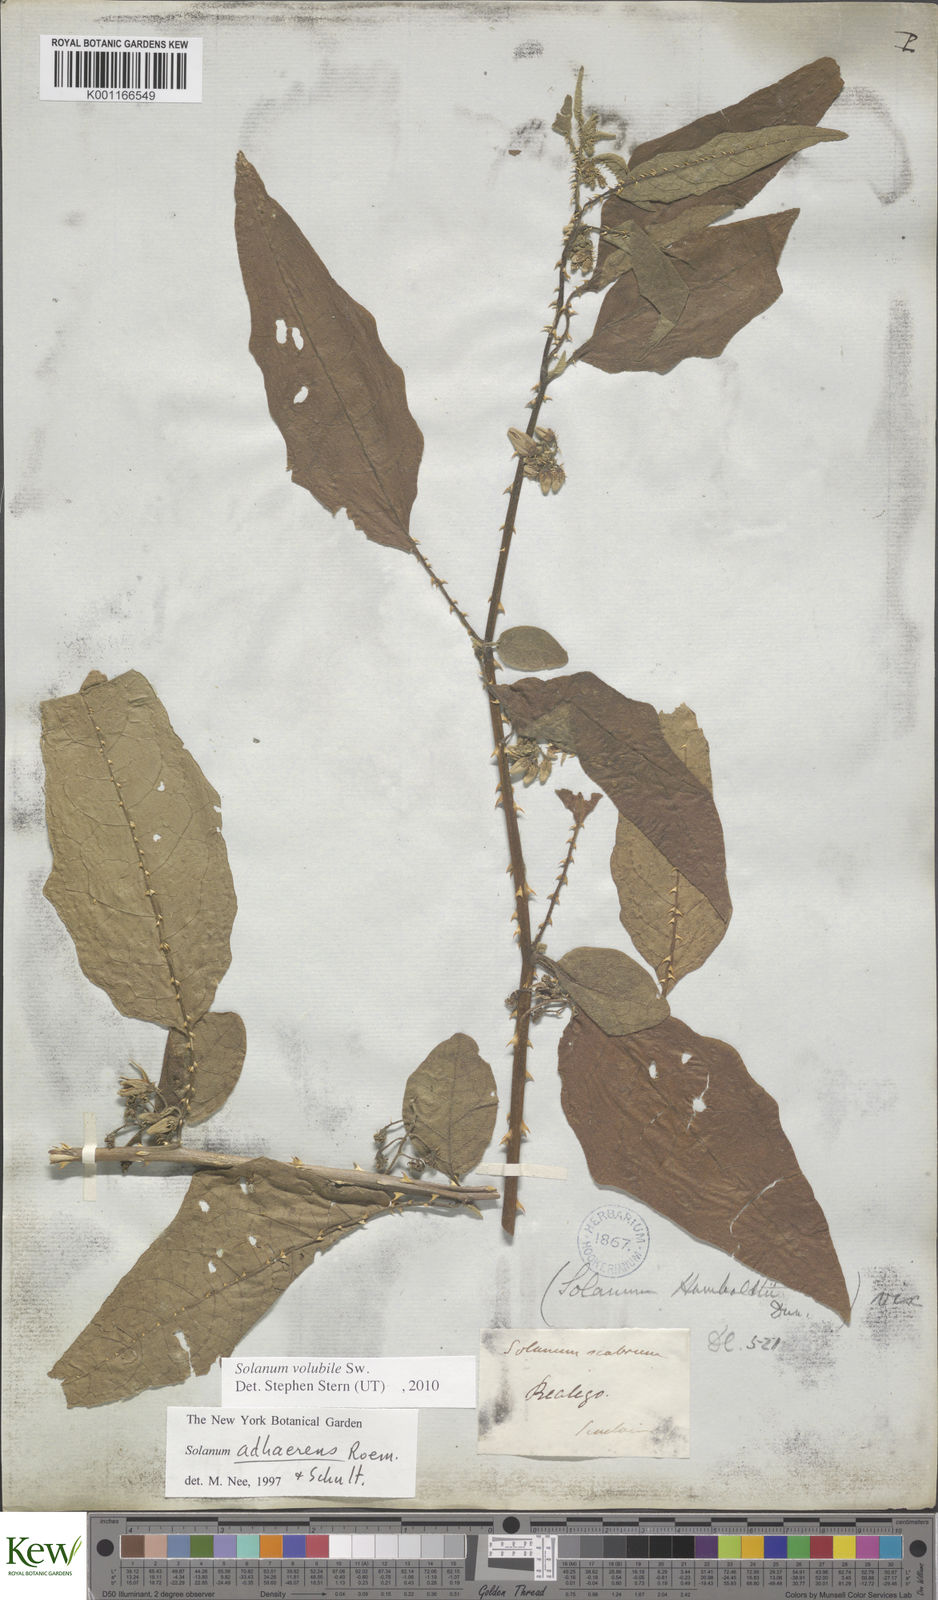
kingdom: Plantae
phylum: Tracheophyta
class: Magnoliopsida
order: Solanales
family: Solanaceae
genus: Solanum
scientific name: Solanum volubile
